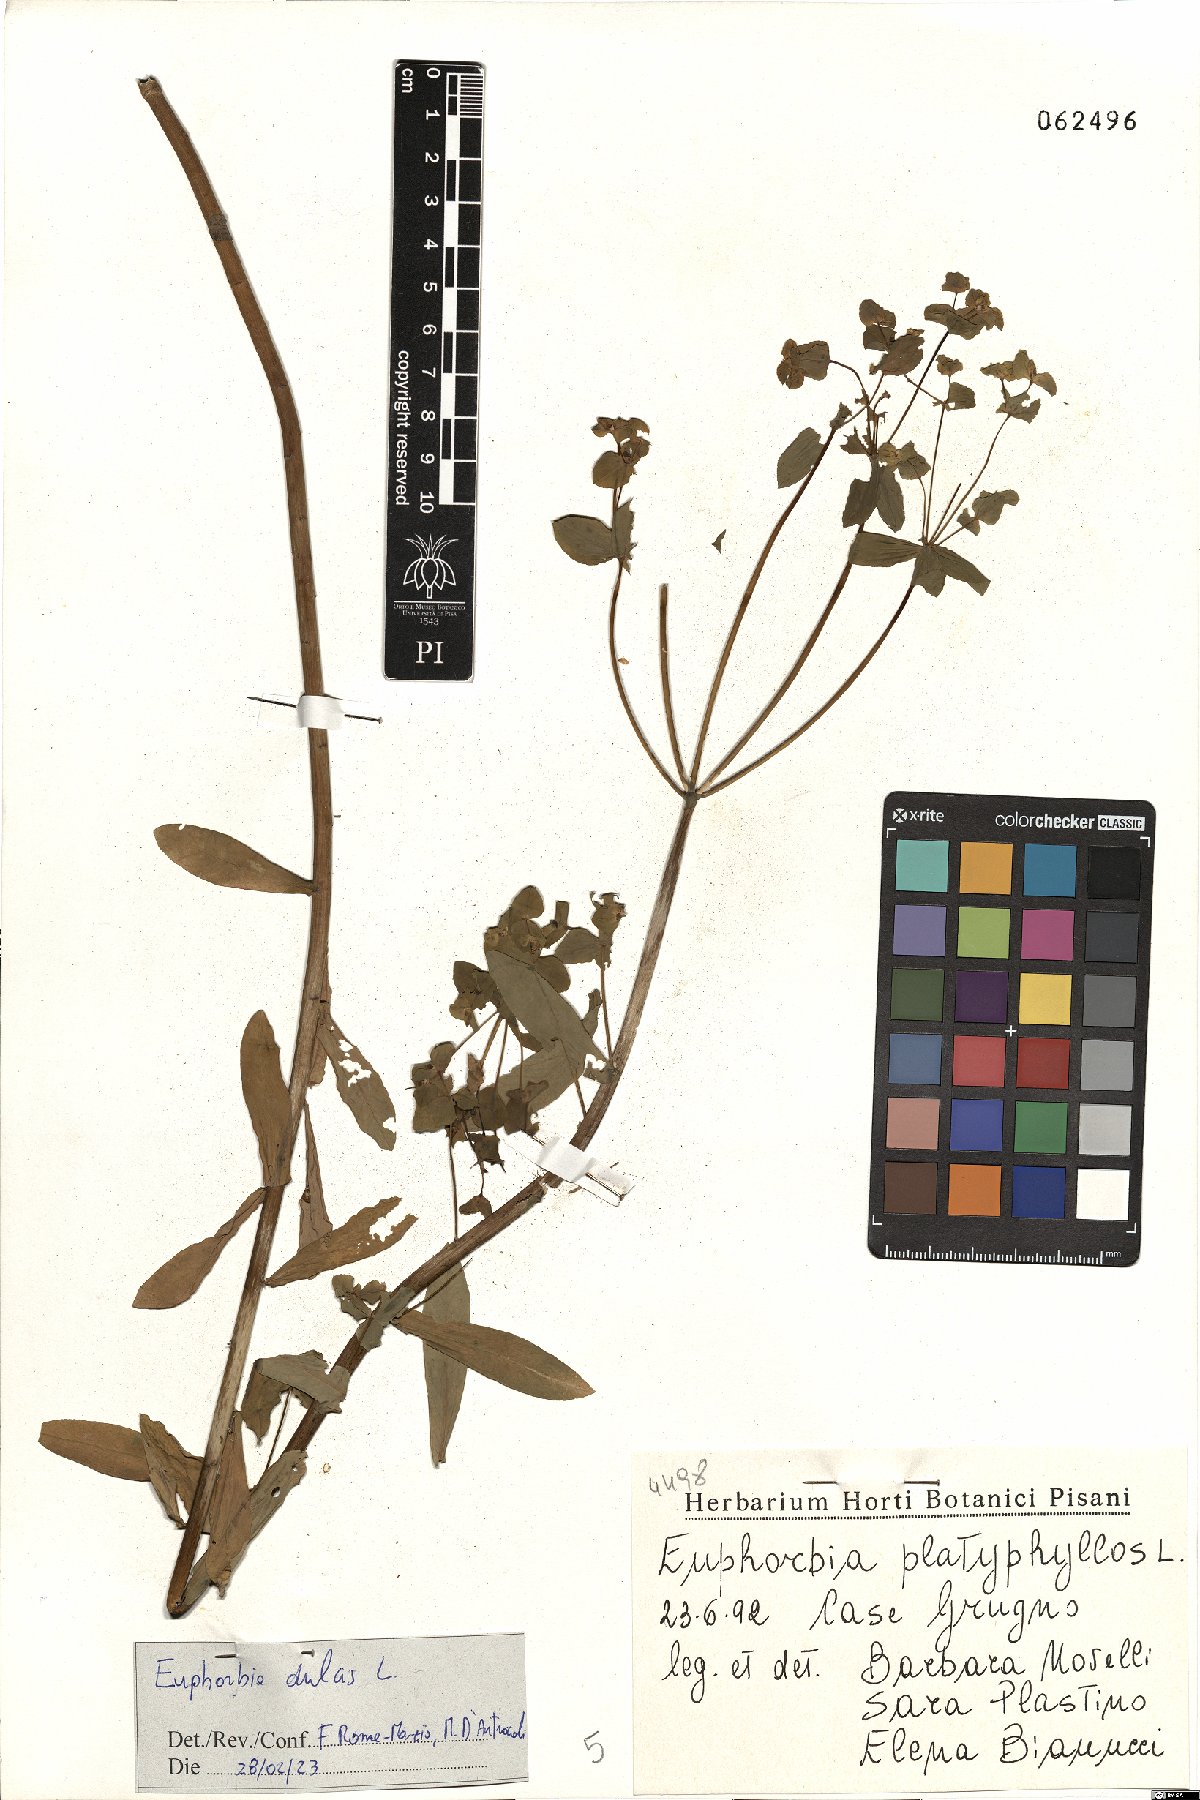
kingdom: Plantae
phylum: Tracheophyta
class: Magnoliopsida
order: Malpighiales
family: Euphorbiaceae
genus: Euphorbia
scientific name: Euphorbia dulcis
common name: Sweet spurge
